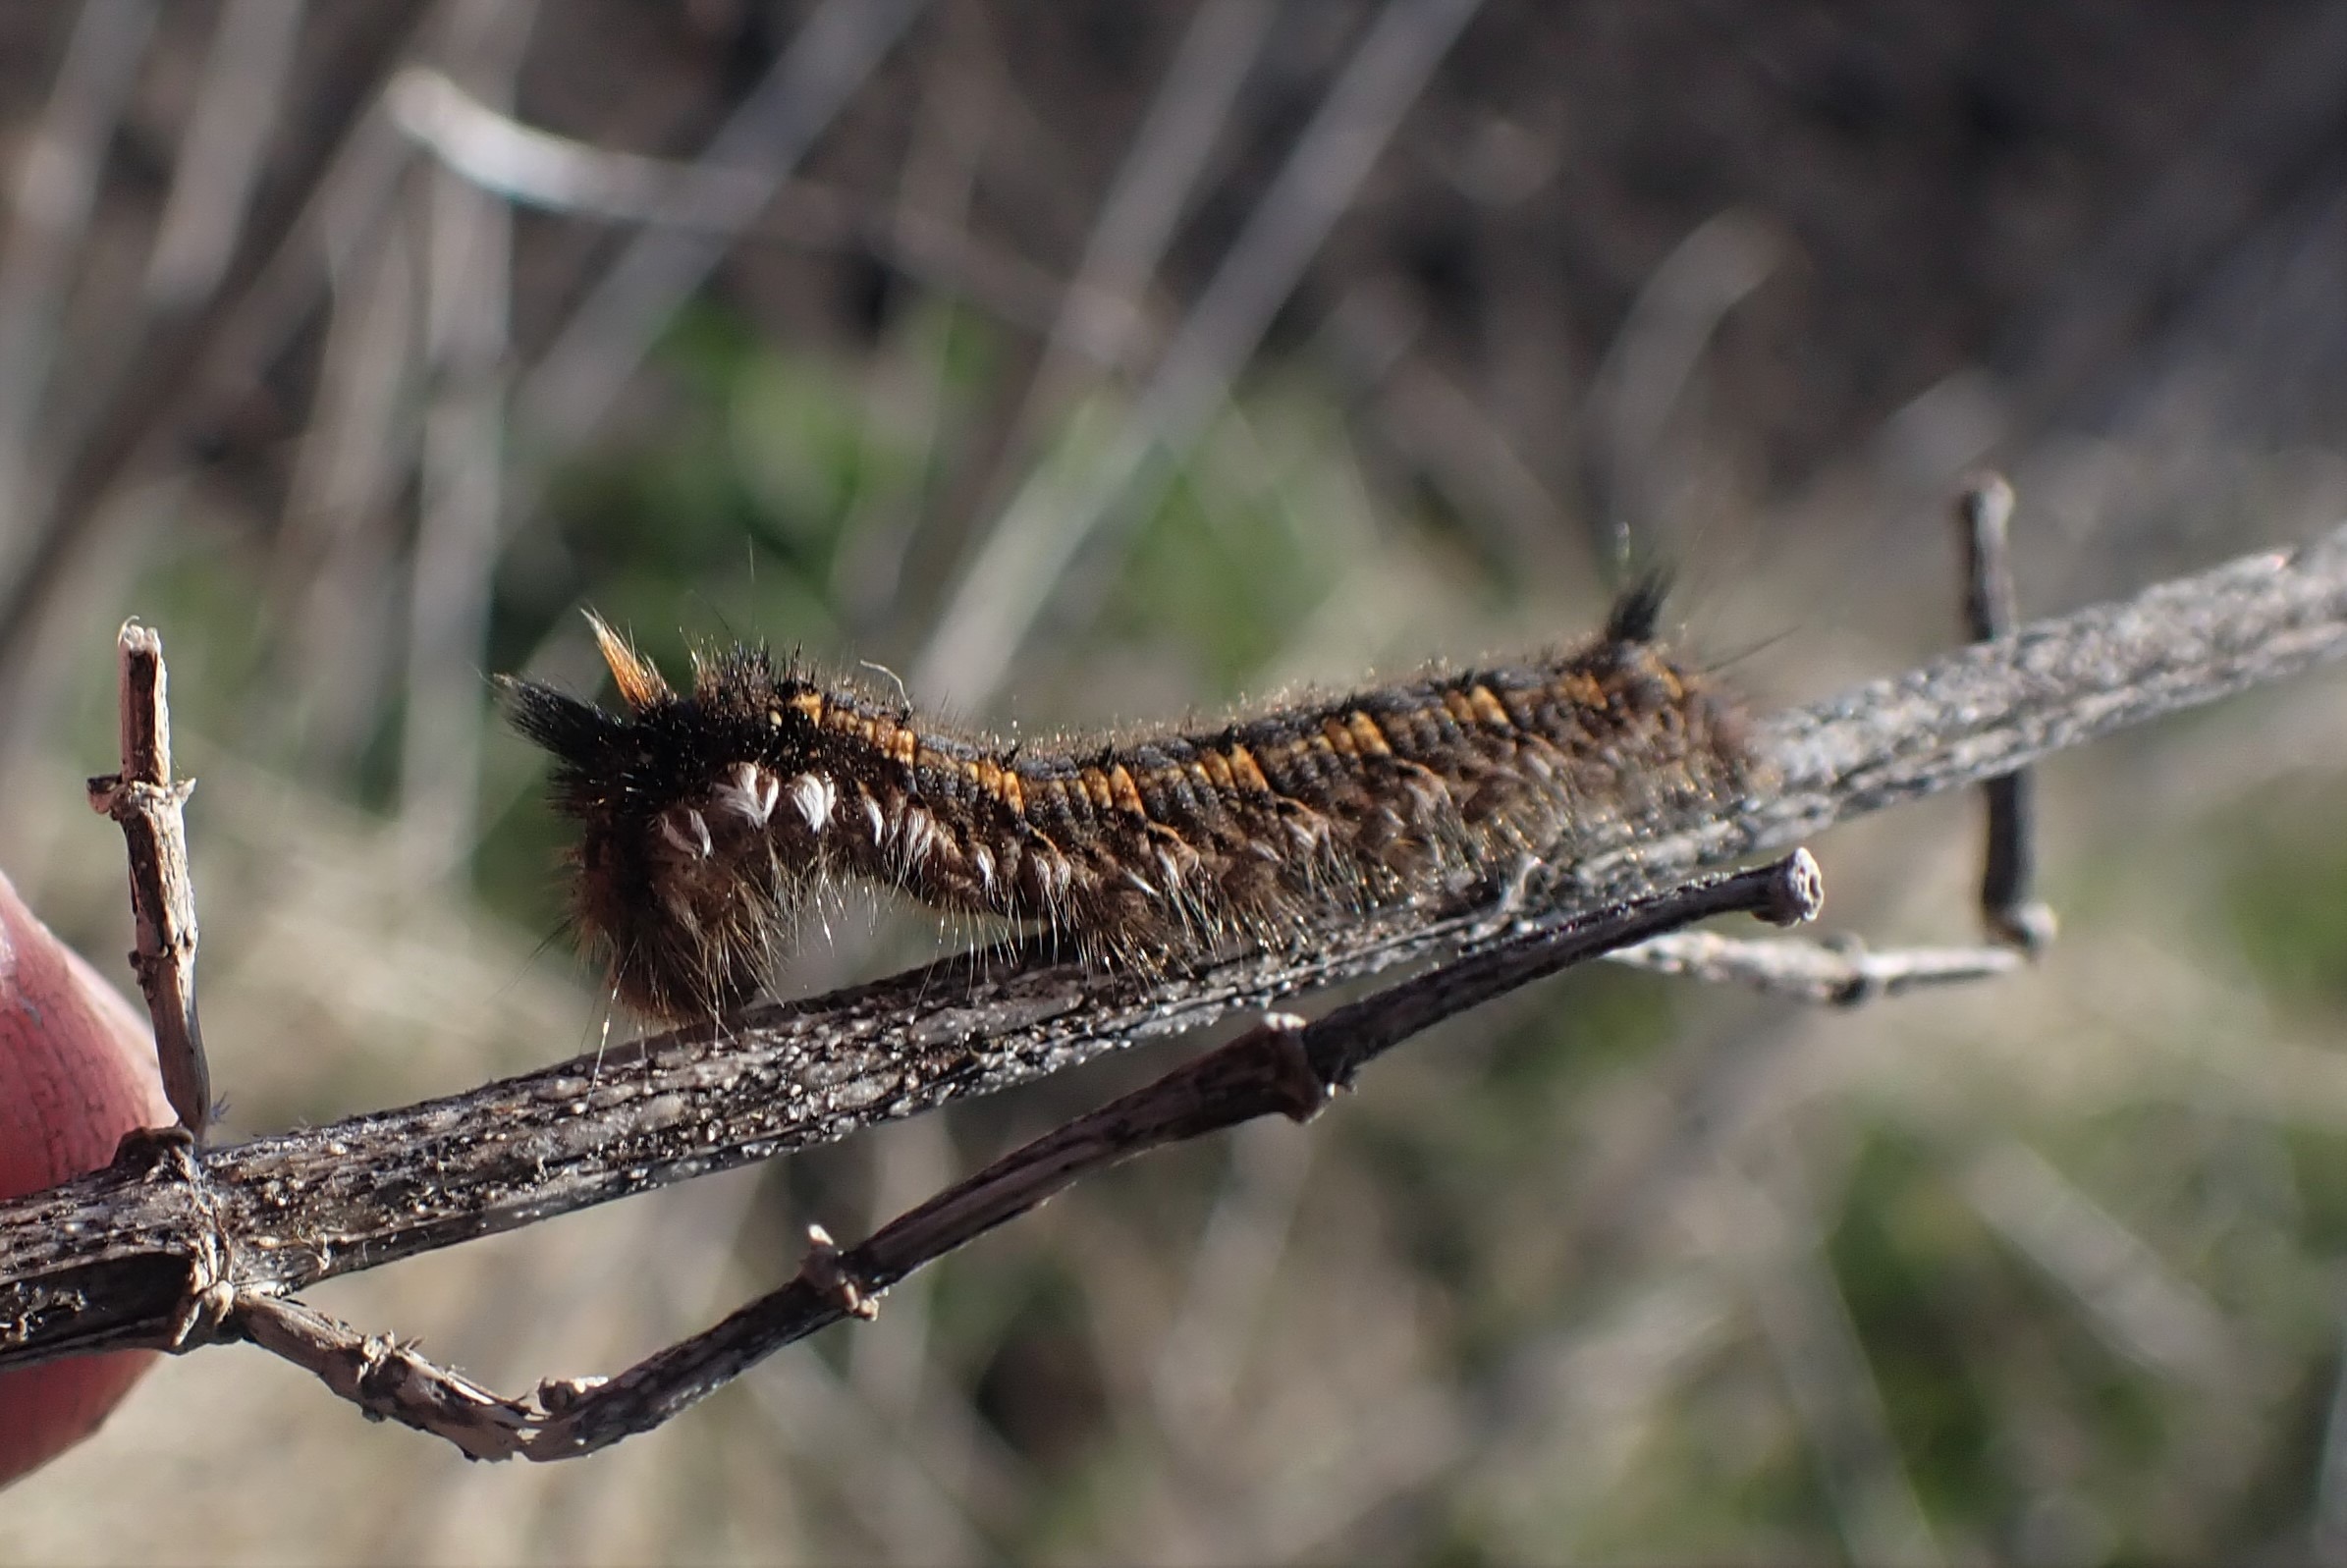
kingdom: Animalia
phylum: Arthropoda
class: Insecta
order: Lepidoptera
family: Lasiocampidae
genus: Euthrix
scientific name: Euthrix potatoria
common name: Græsspinder
